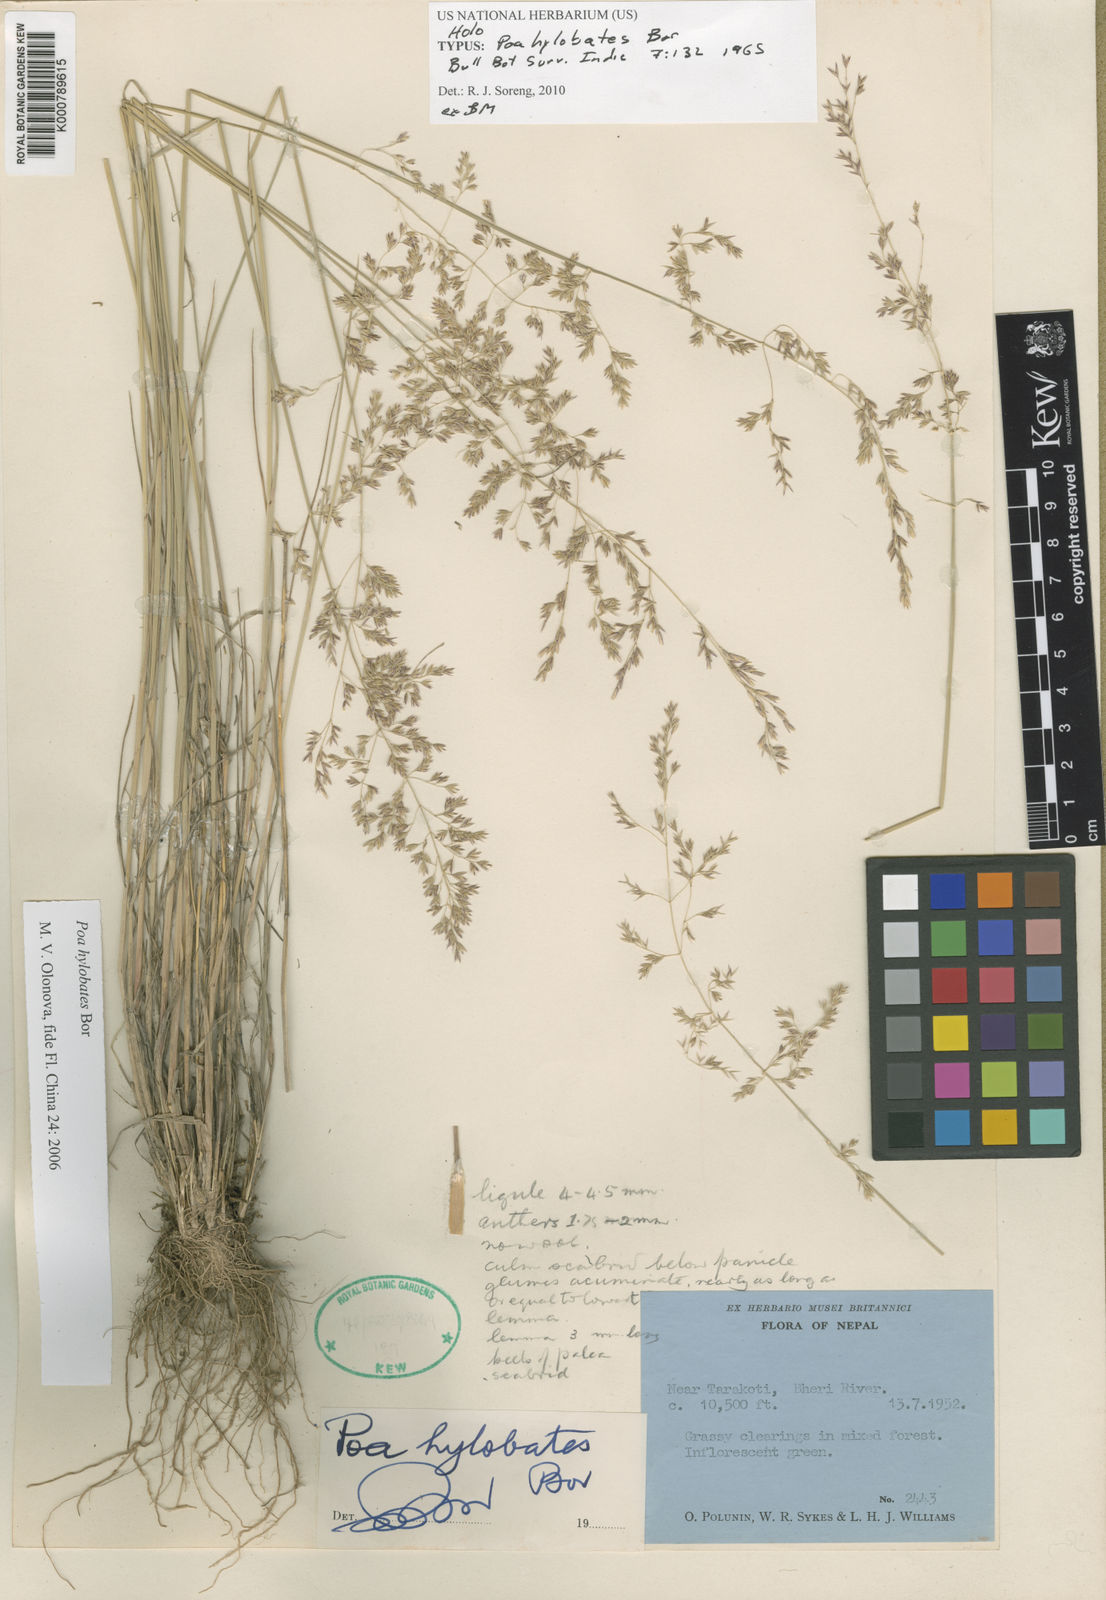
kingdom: Plantae
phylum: Tracheophyta
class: Liliopsida
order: Poales
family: Poaceae
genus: Poa
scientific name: Poa hylobates
